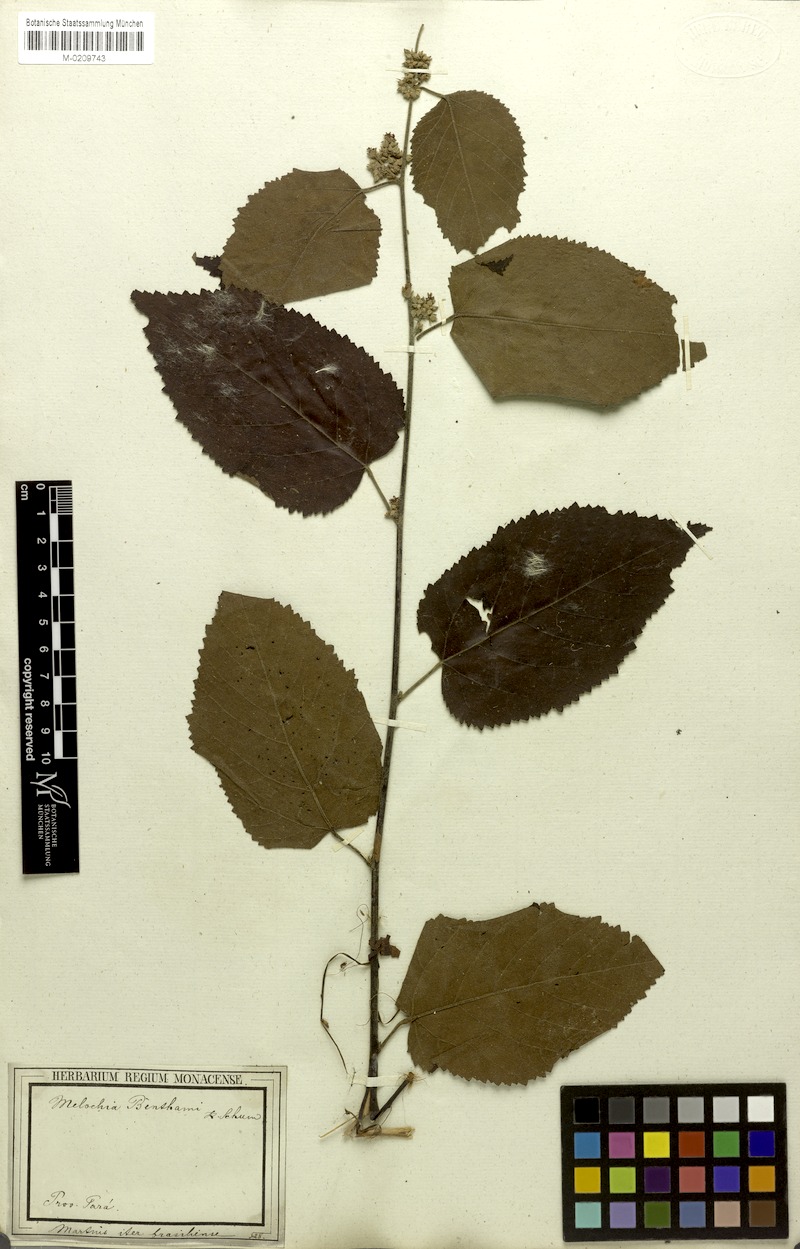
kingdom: Plantae
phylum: Tracheophyta
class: Magnoliopsida
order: Malvales
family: Malvaceae
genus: Melochia
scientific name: Melochia ulmifolia
